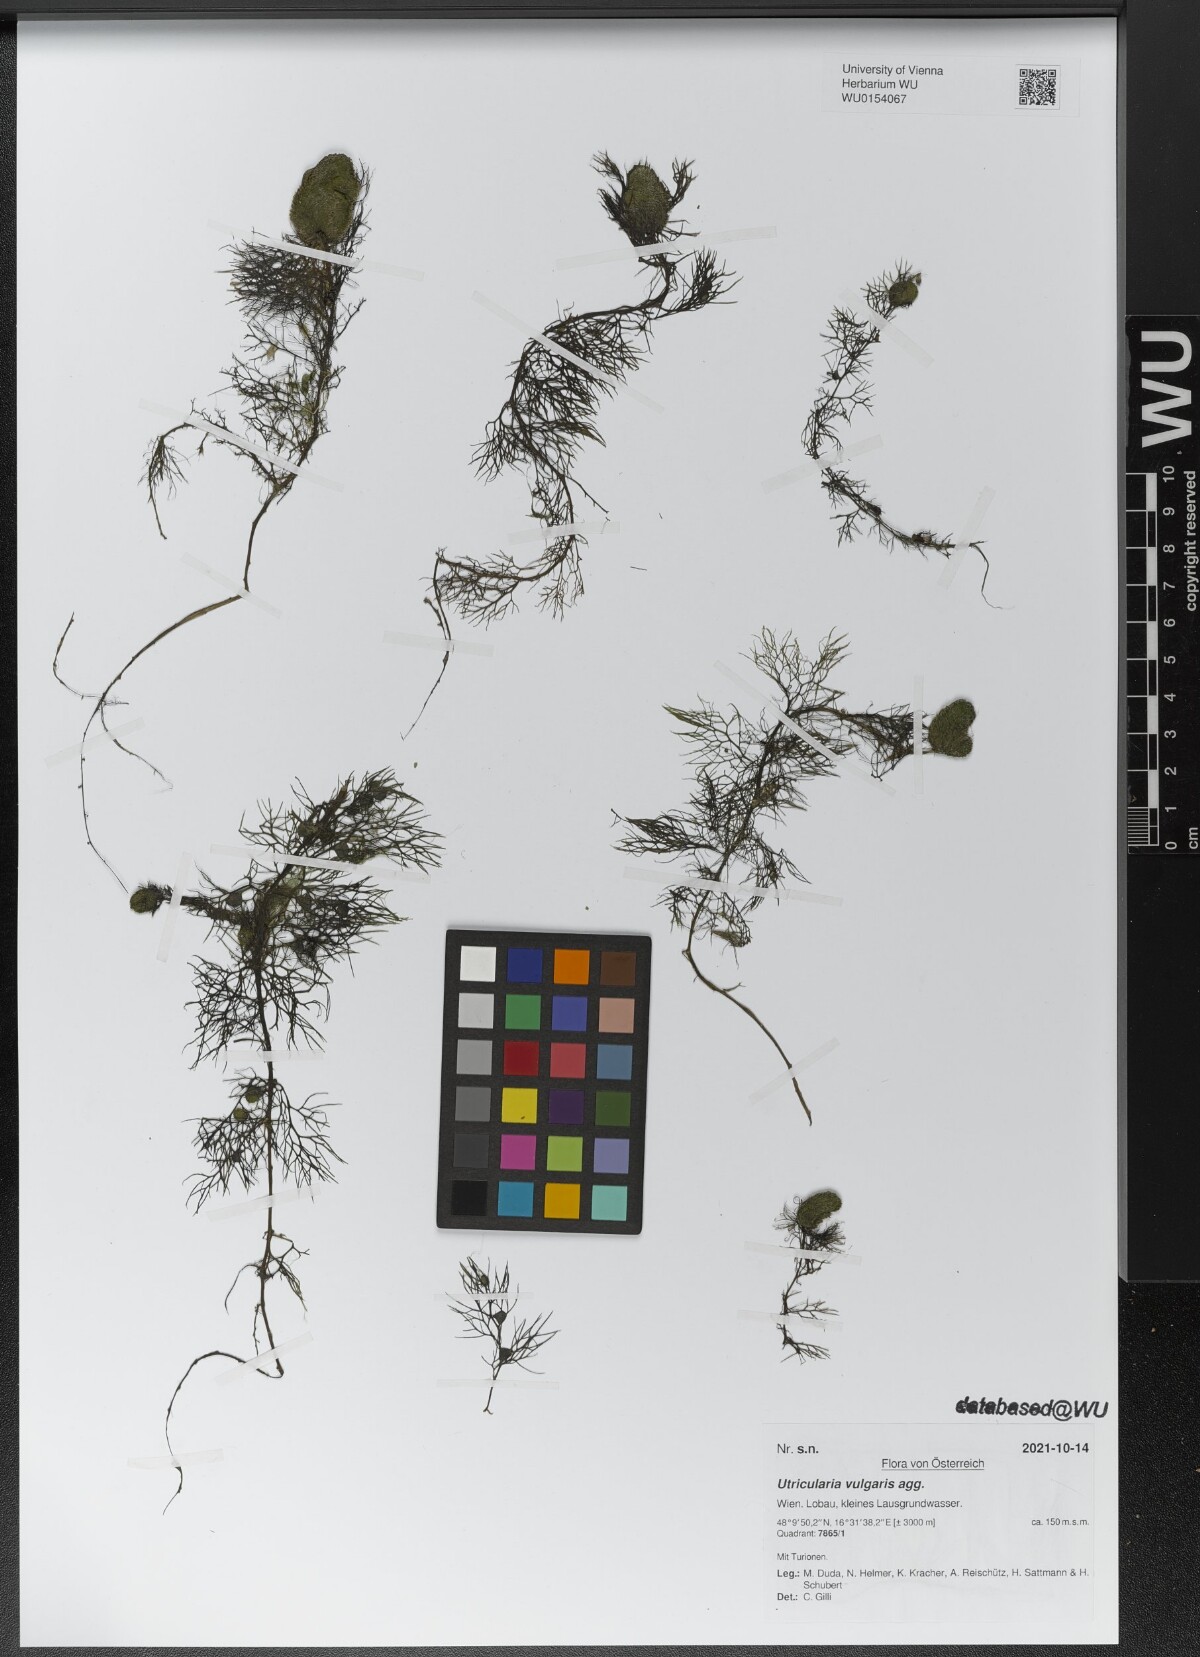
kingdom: Plantae
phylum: Tracheophyta
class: Magnoliopsida
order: Lamiales
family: Lentibulariaceae
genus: Utricularia
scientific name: Utricularia vulgaris
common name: Greater bladderwort
